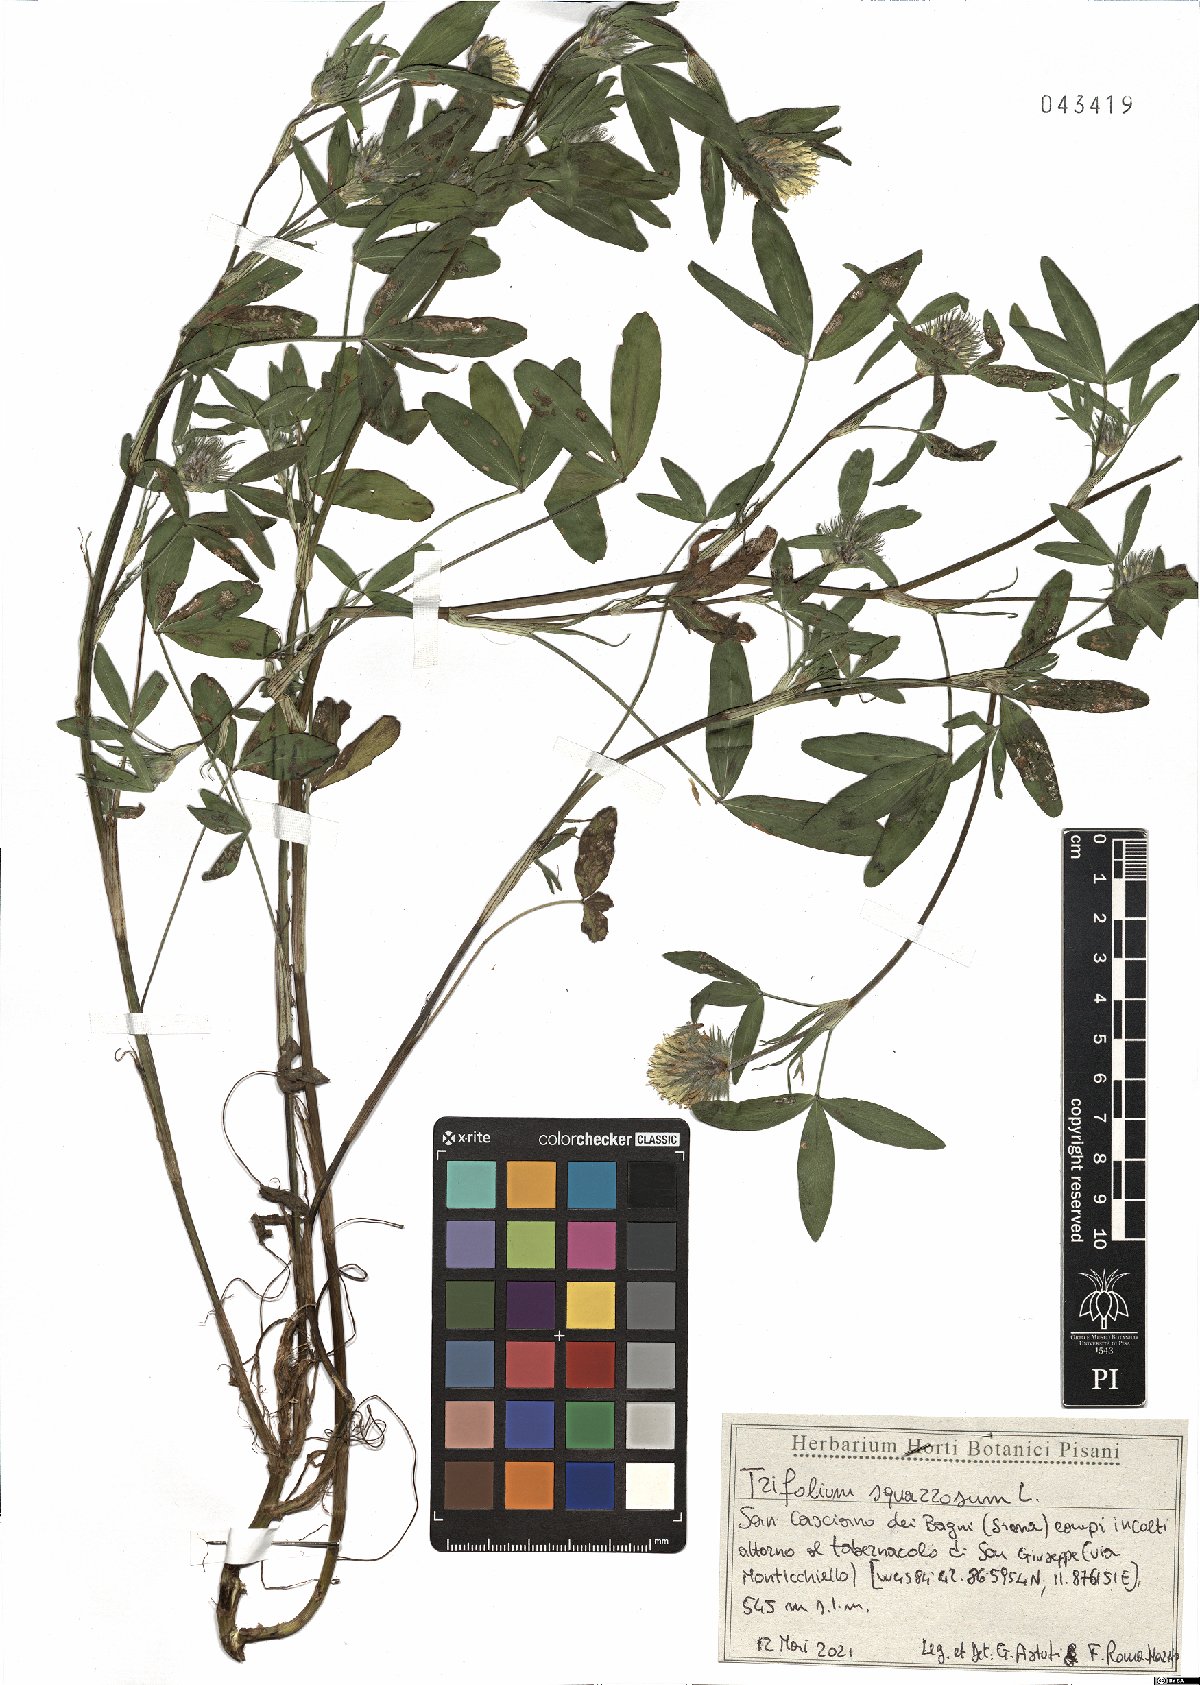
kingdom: Plantae
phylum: Tracheophyta
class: Magnoliopsida
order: Fabales
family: Fabaceae
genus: Trifolium
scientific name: Trifolium squarrosum
